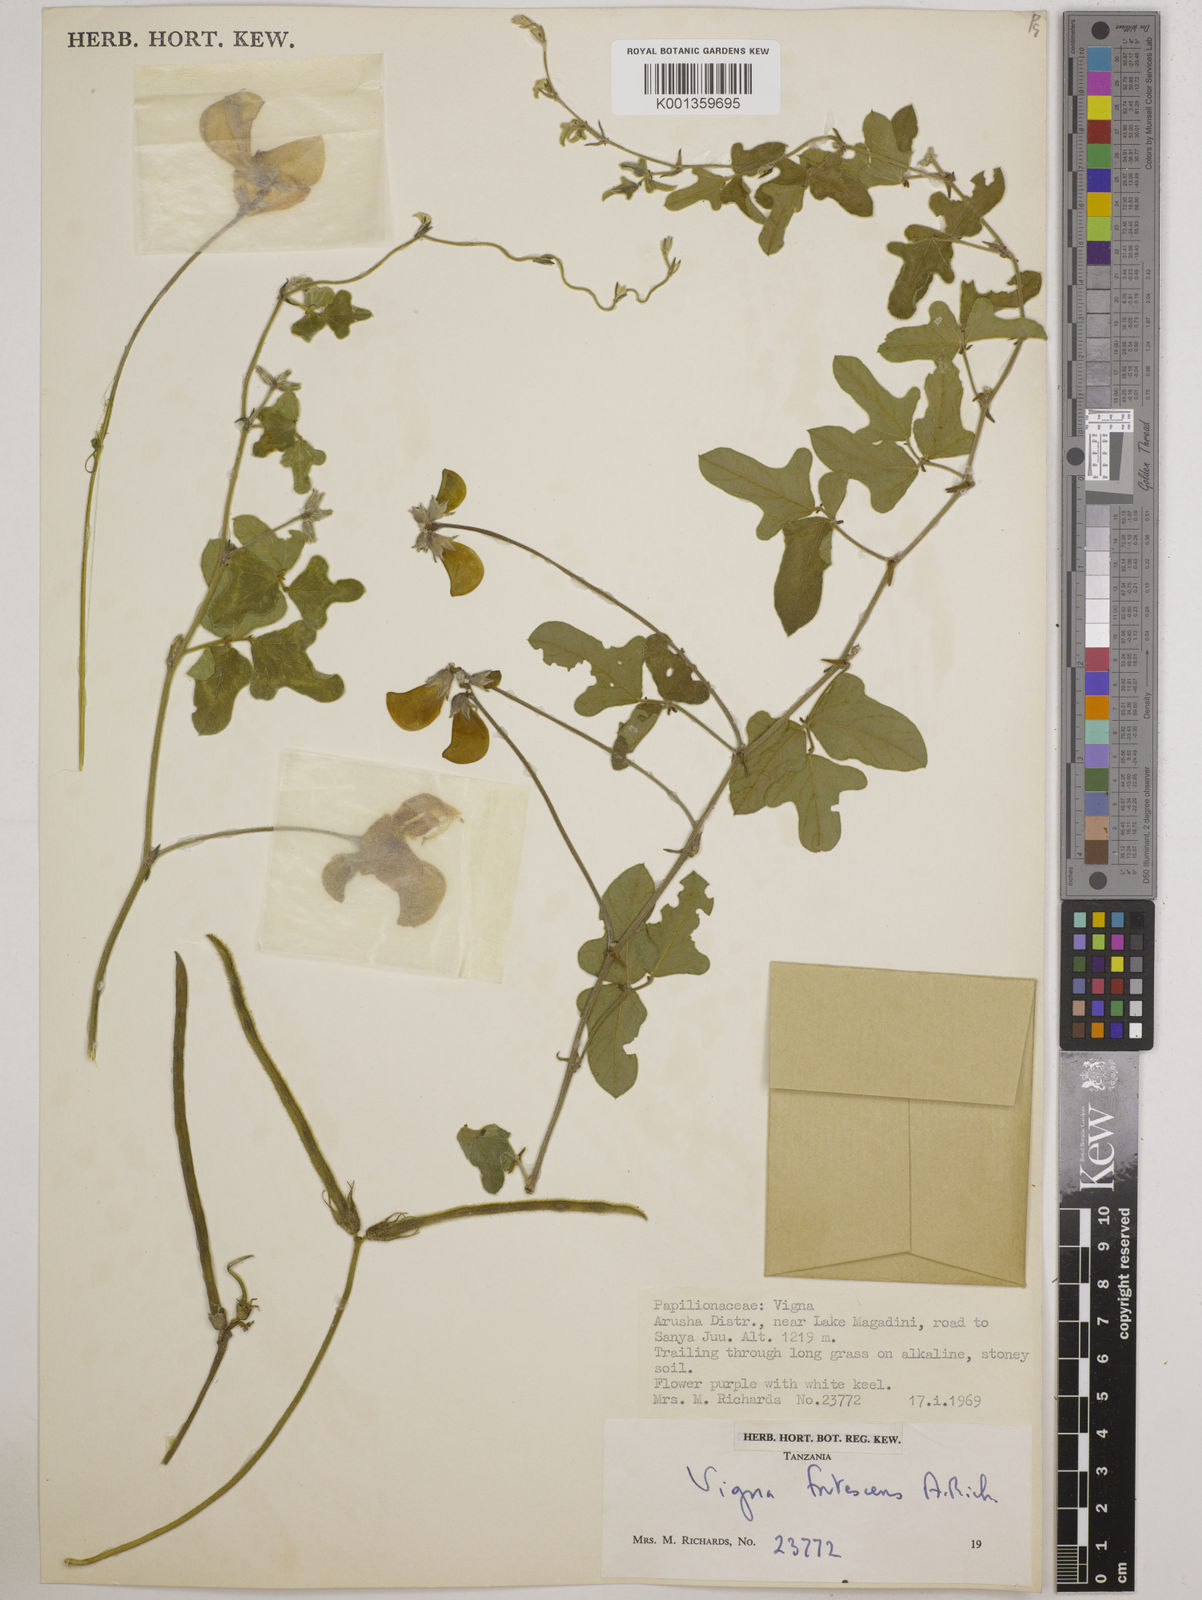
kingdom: Plantae
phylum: Tracheophyta
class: Magnoliopsida
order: Fabales
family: Fabaceae
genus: Vigna
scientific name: Vigna frutescens
